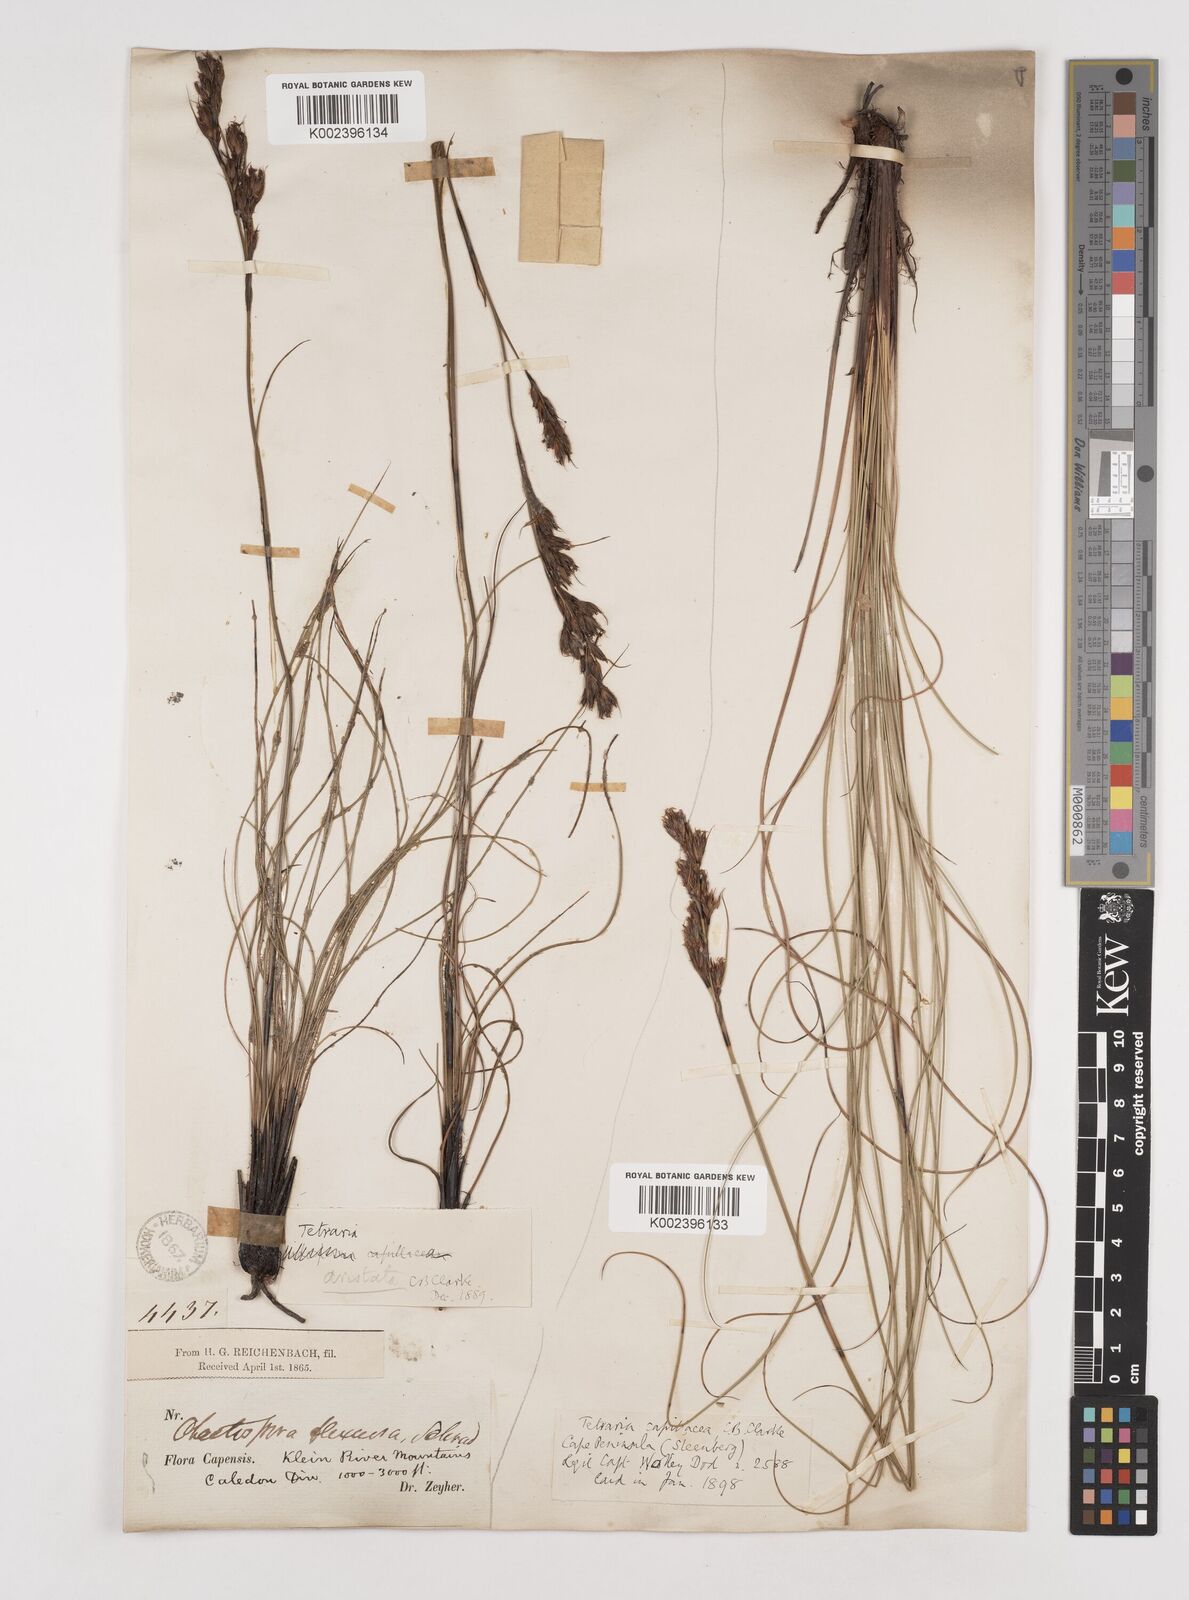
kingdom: Plantae
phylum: Tracheophyta
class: Liliopsida
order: Poales
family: Cyperaceae
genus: Tetraria
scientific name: Tetraria flexuosa
